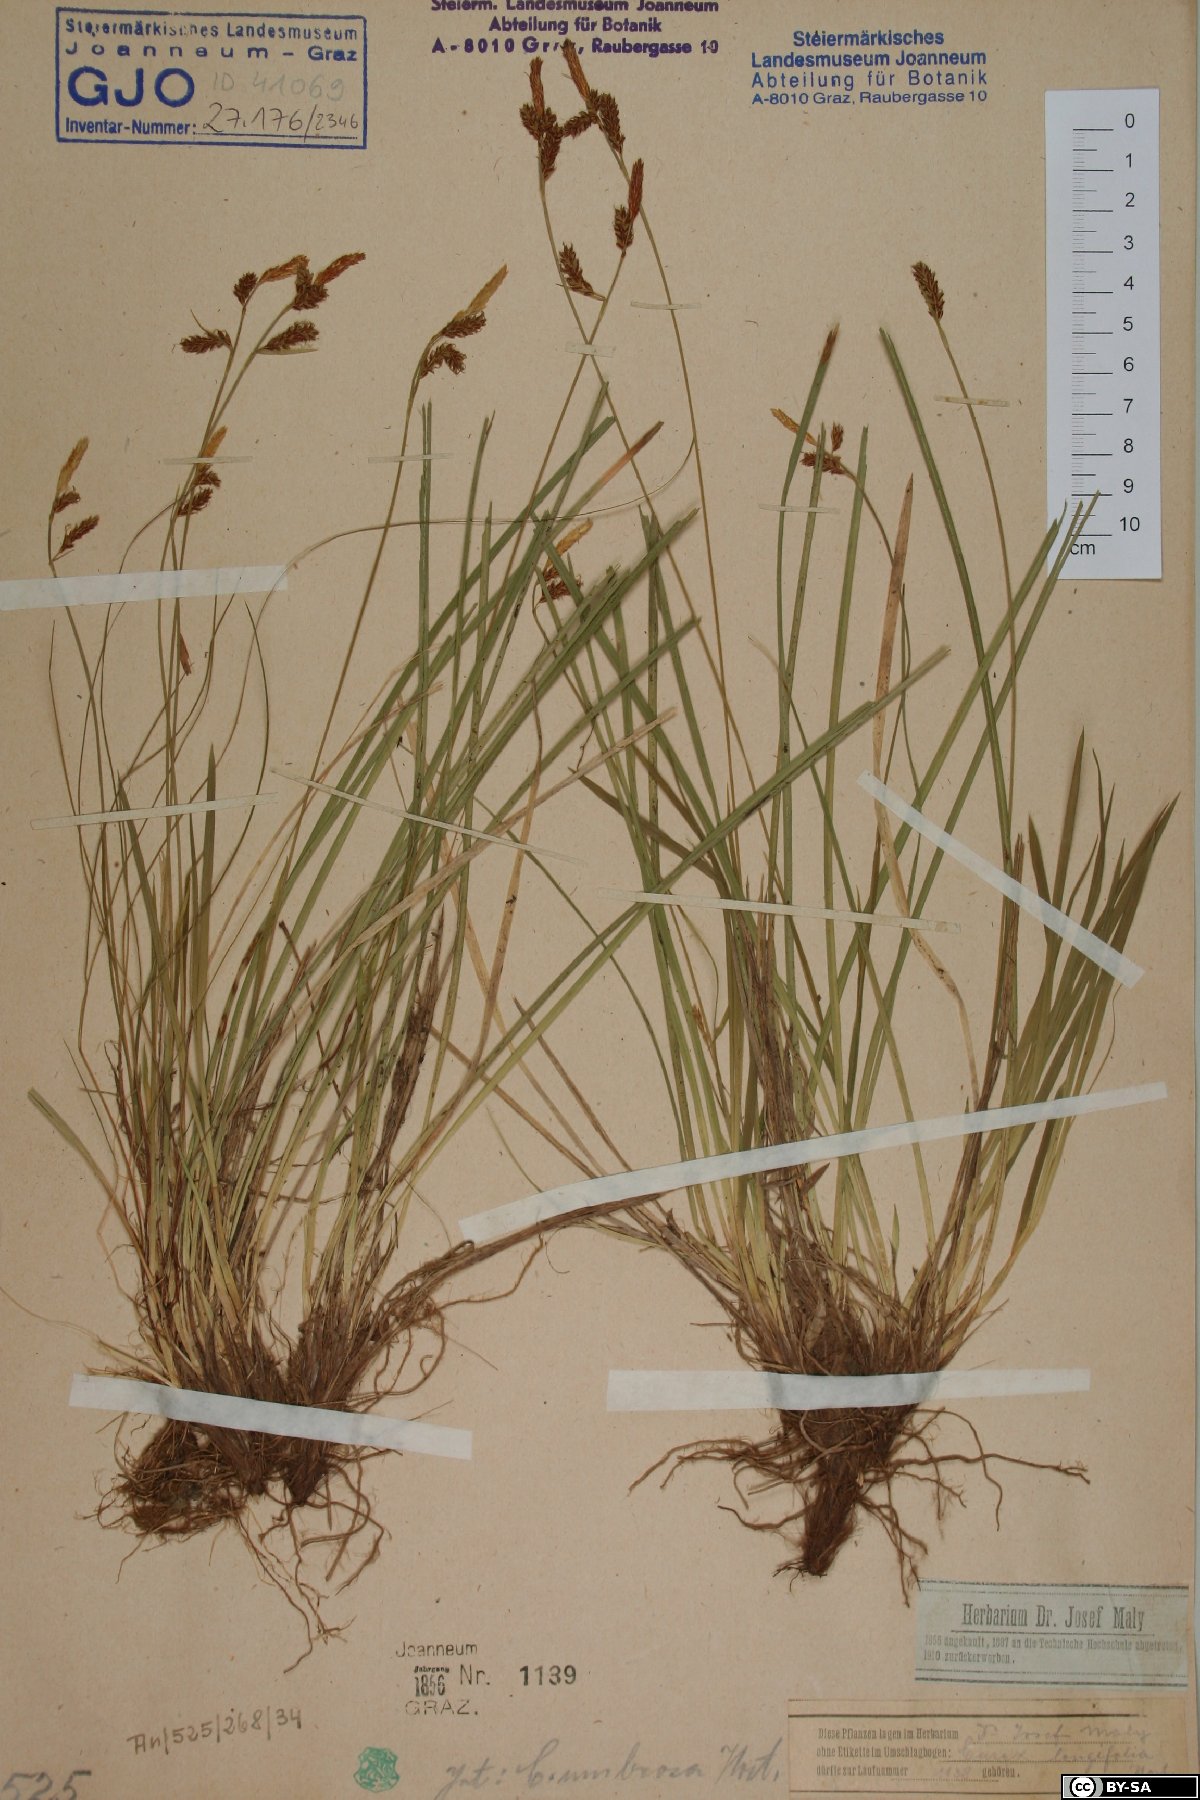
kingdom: Plantae
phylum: Tracheophyta
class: Liliopsida
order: Poales
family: Cyperaceae
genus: Carex
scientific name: Carex umbrosa
